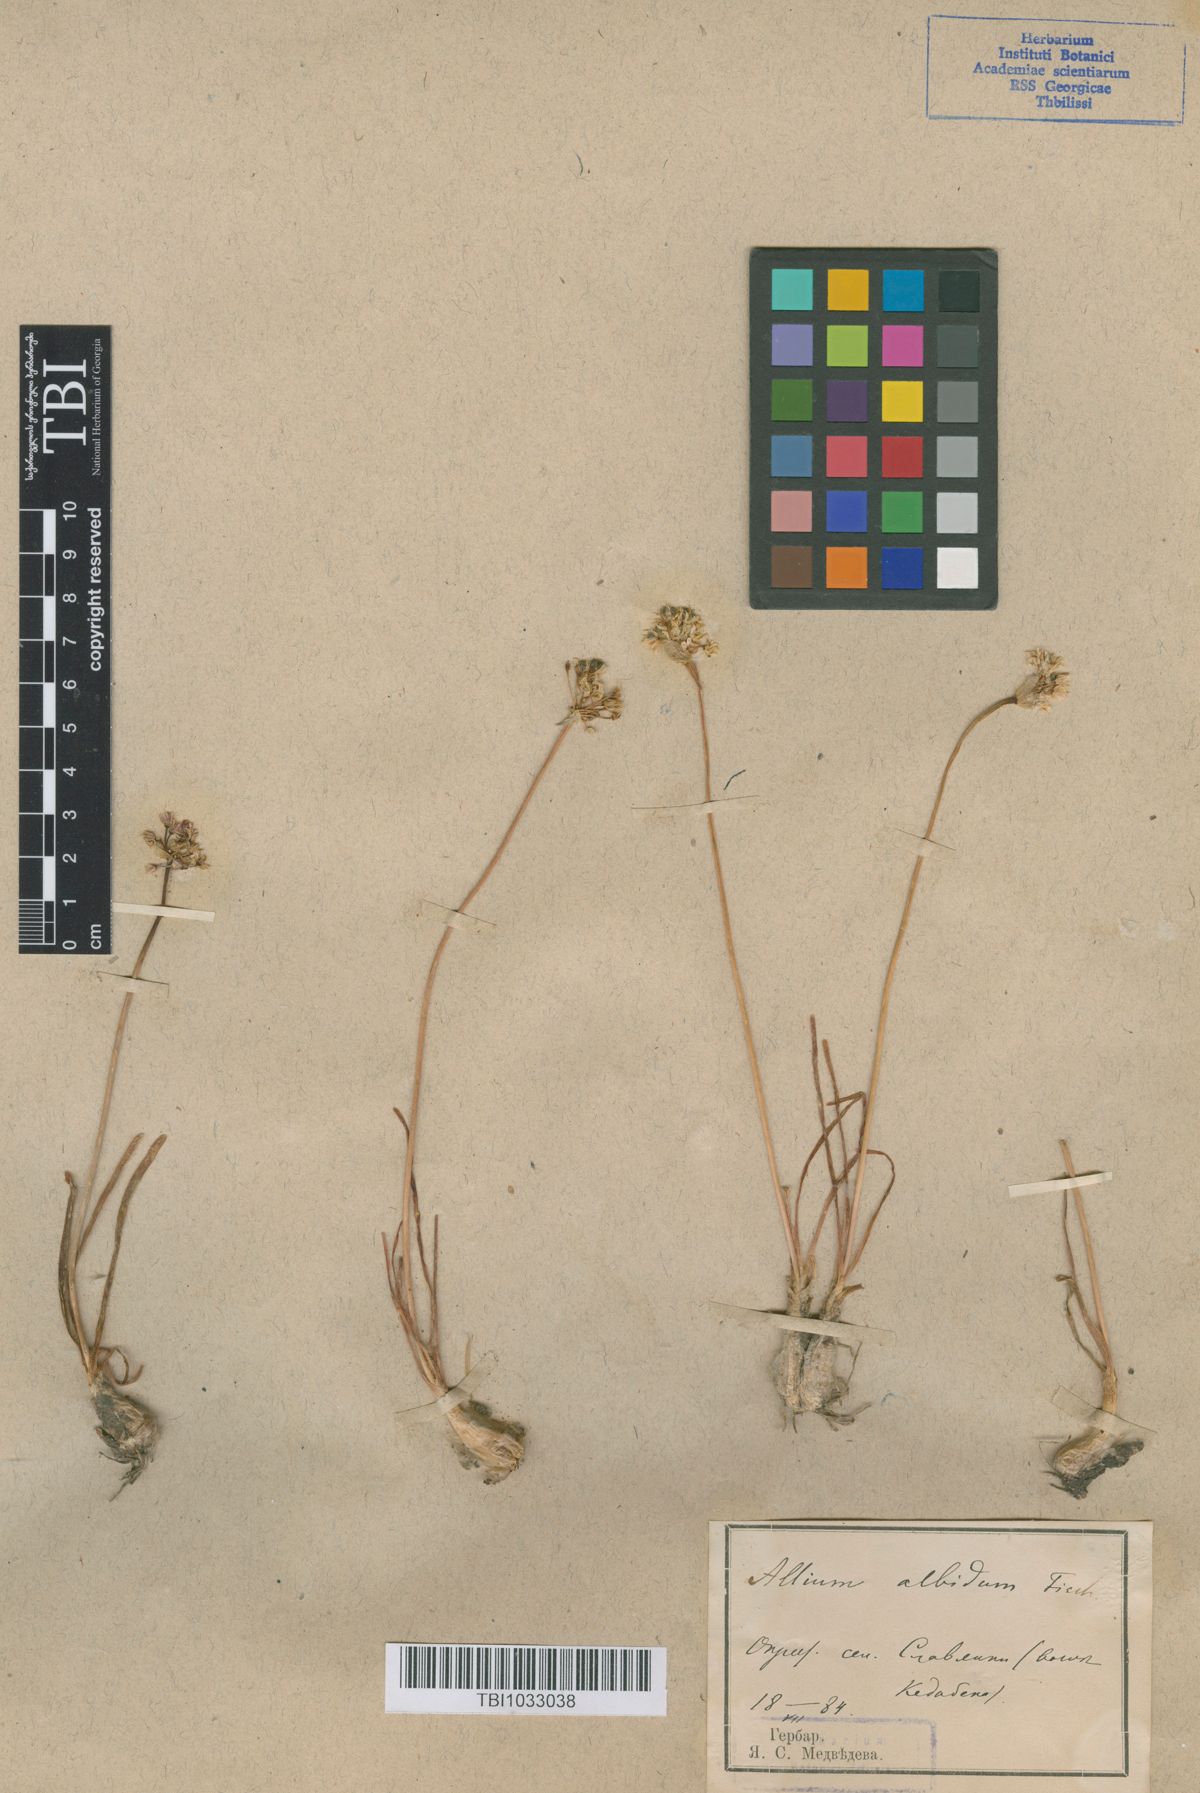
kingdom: Plantae
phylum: Tracheophyta
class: Liliopsida
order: Asparagales
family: Amaryllidaceae
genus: Allium
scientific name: Allium denudatum
